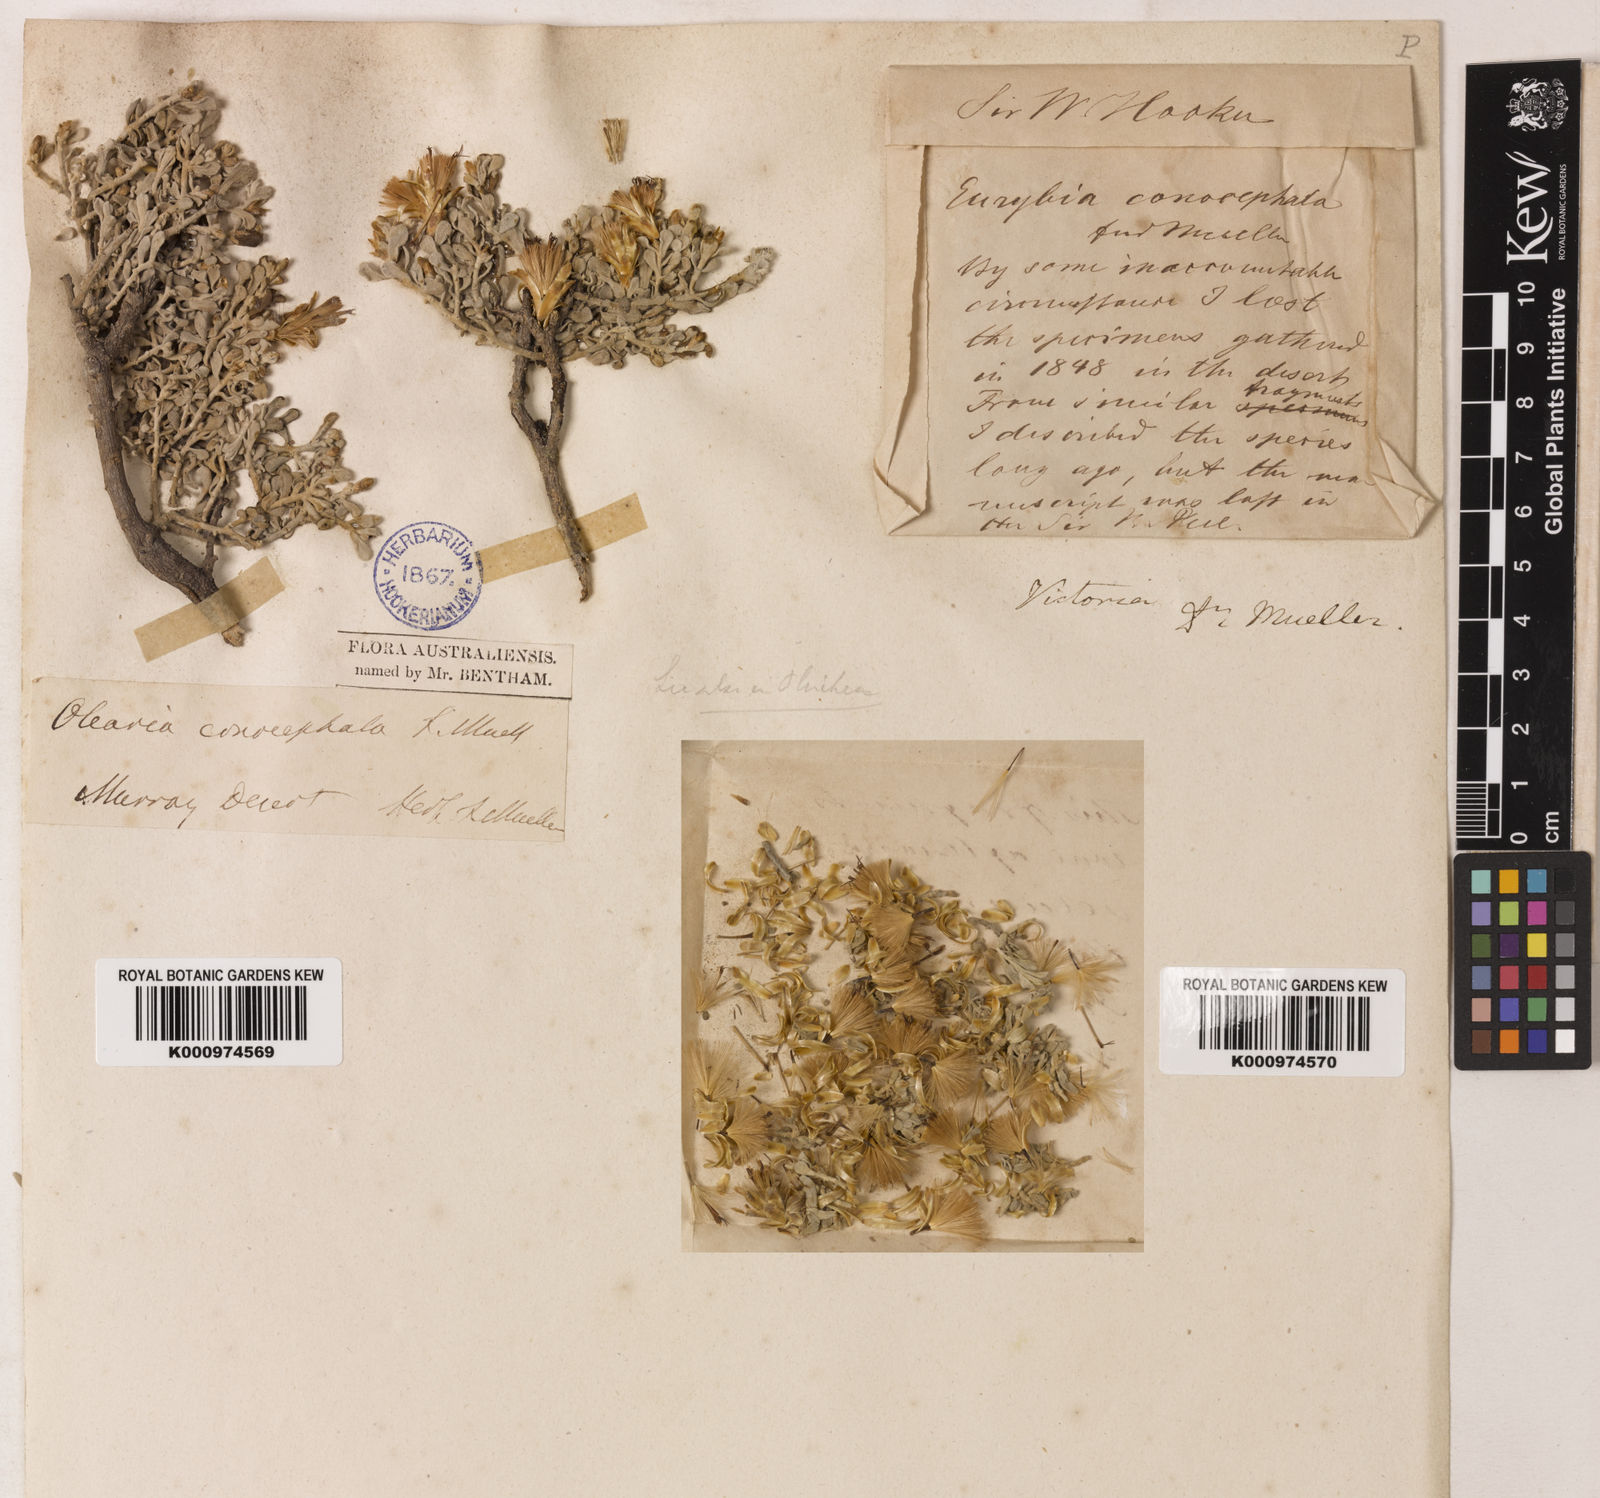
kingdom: Plantae
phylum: Tracheophyta
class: Magnoliopsida
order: Asterales
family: Asteraceae
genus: Cratystylis
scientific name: Cratystylis conocephala
